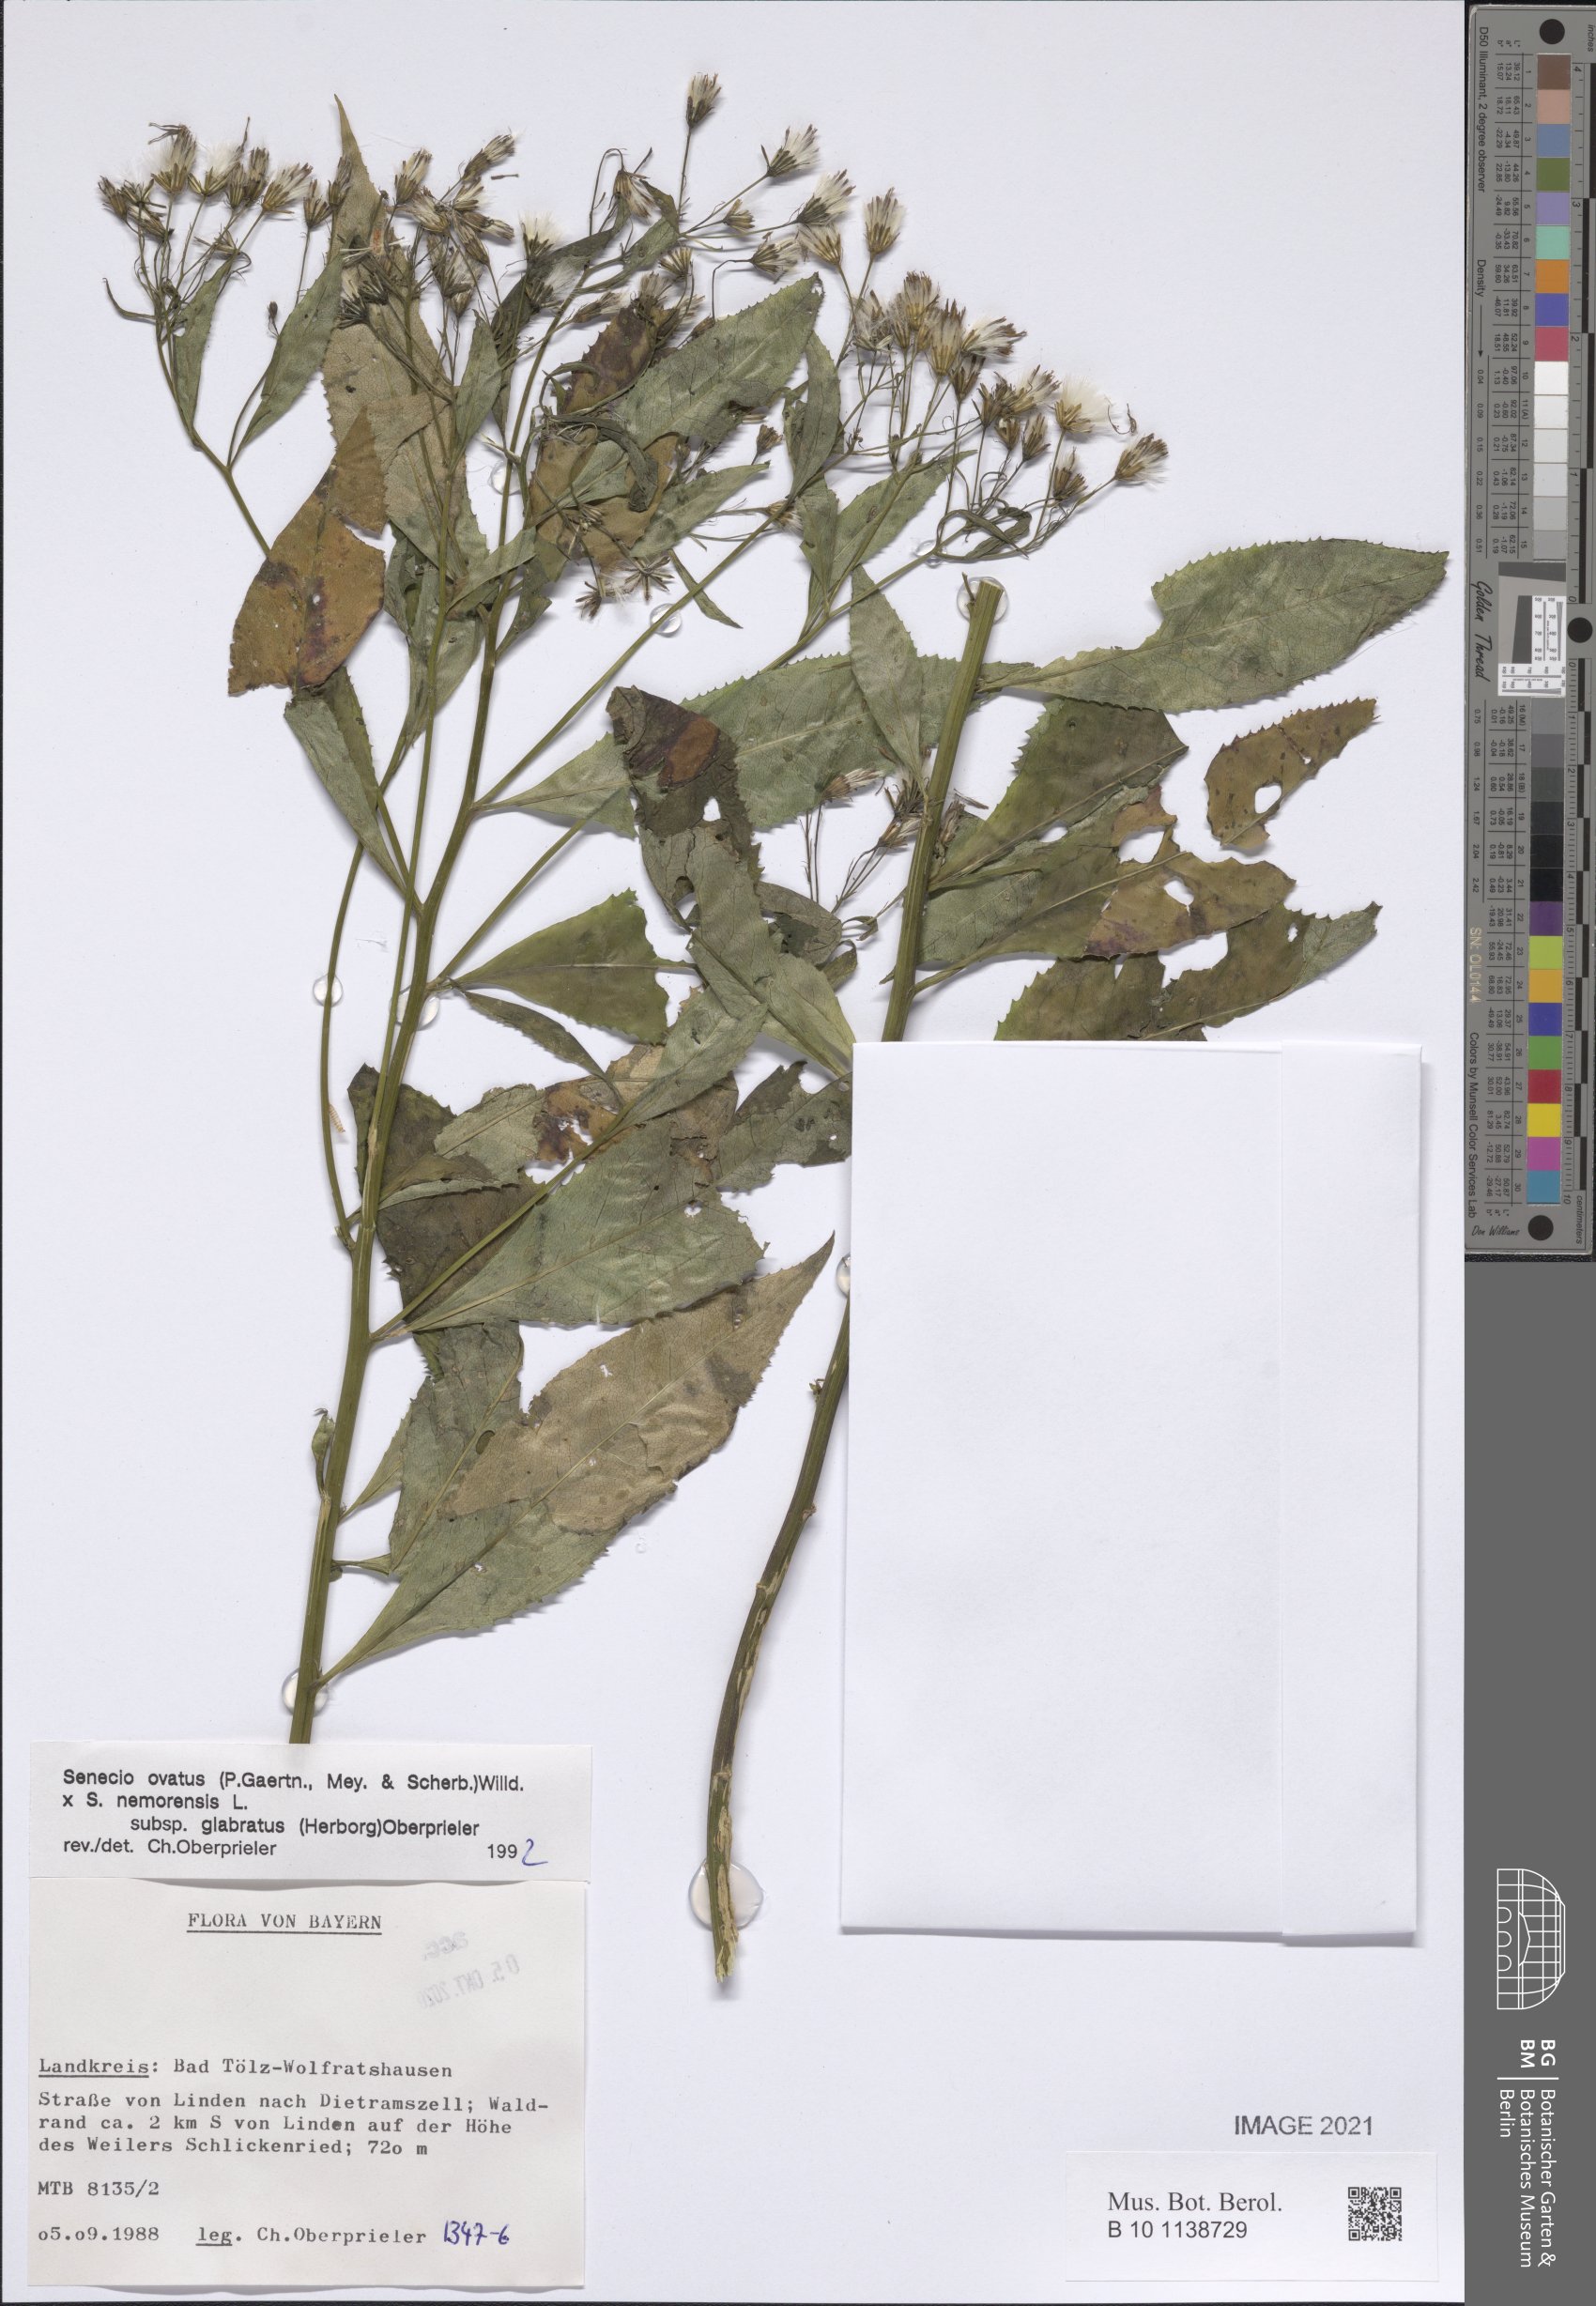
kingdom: Plantae
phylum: Tracheophyta
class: Magnoliopsida
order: Asterales
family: Asteraceae
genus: Senecio
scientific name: Senecio ovatus
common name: Wood ragwort
